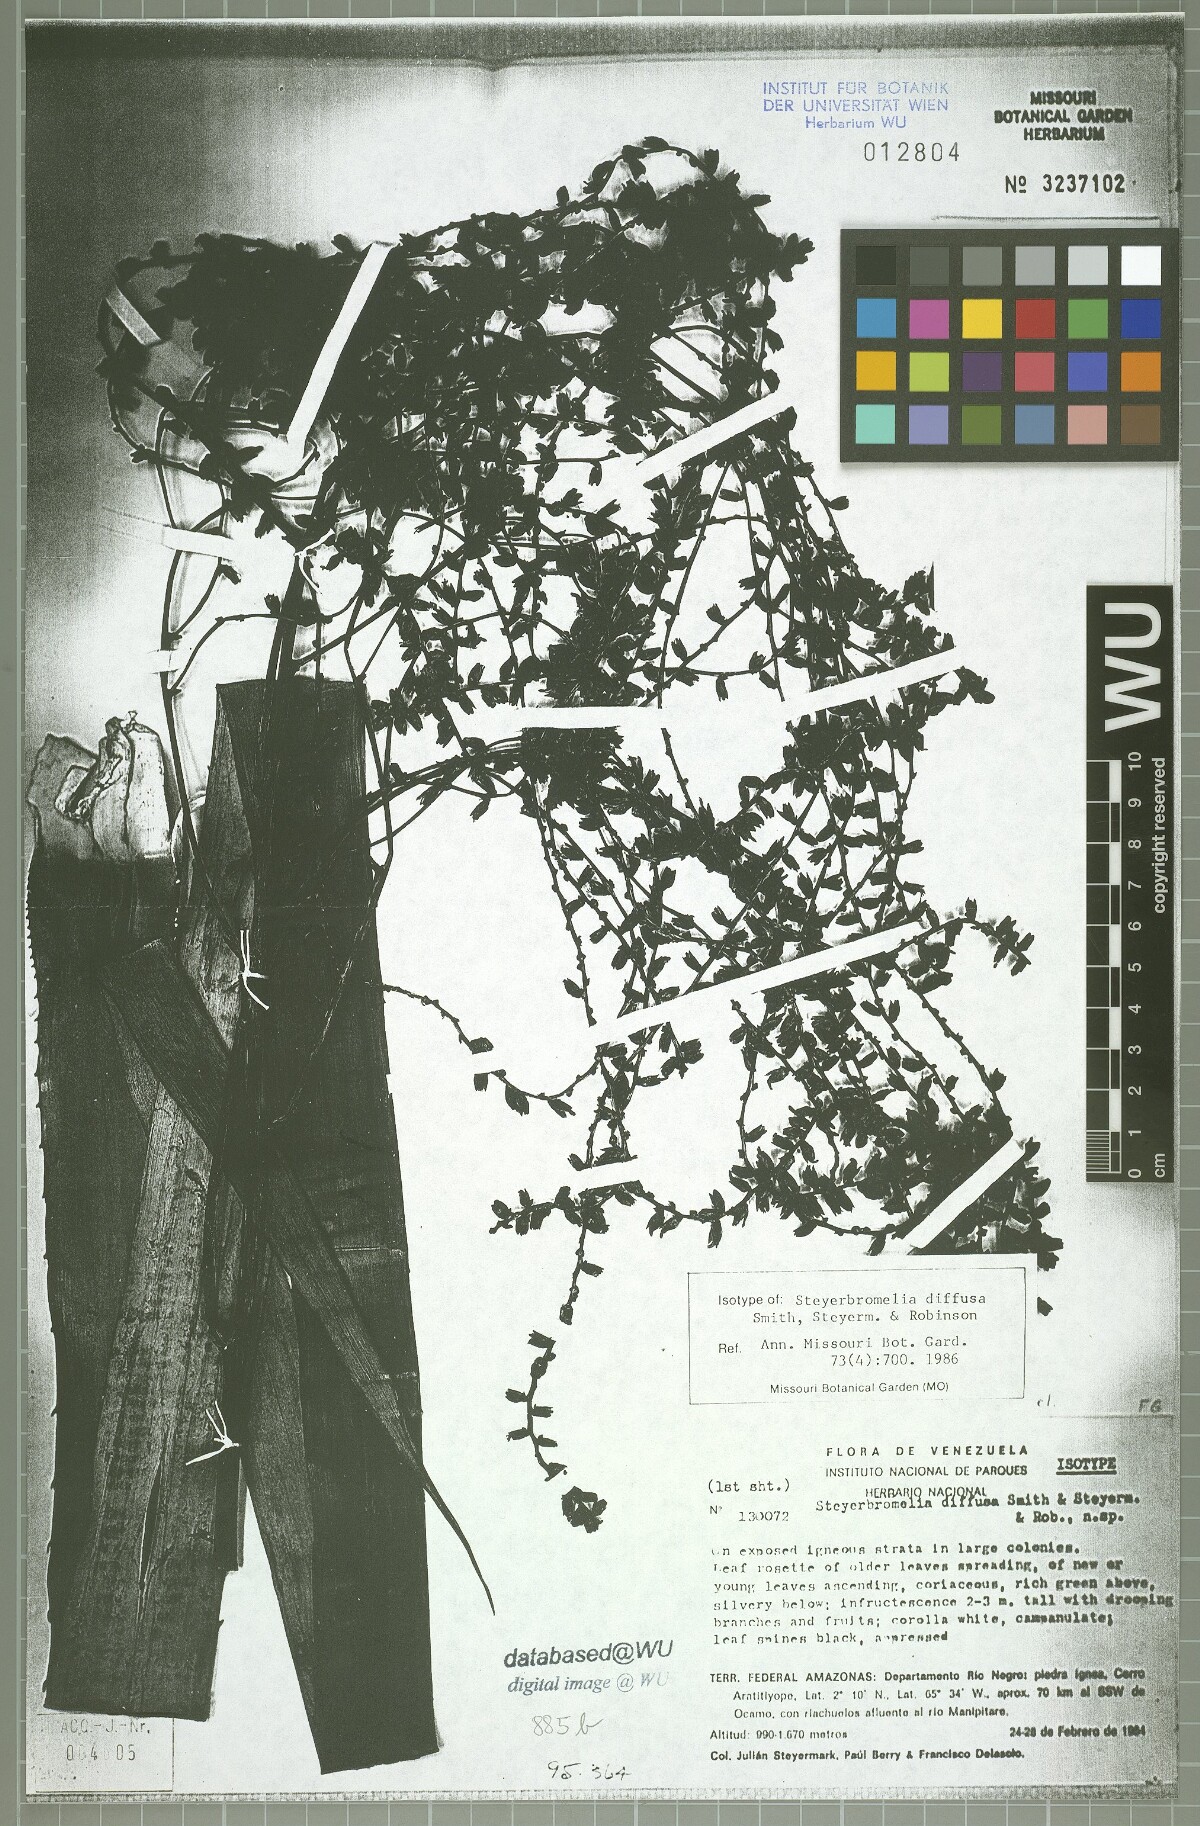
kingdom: Plantae
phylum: Tracheophyta
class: Liliopsida
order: Poales
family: Bromeliaceae
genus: Steyerbromelia
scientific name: Steyerbromelia diffusa
